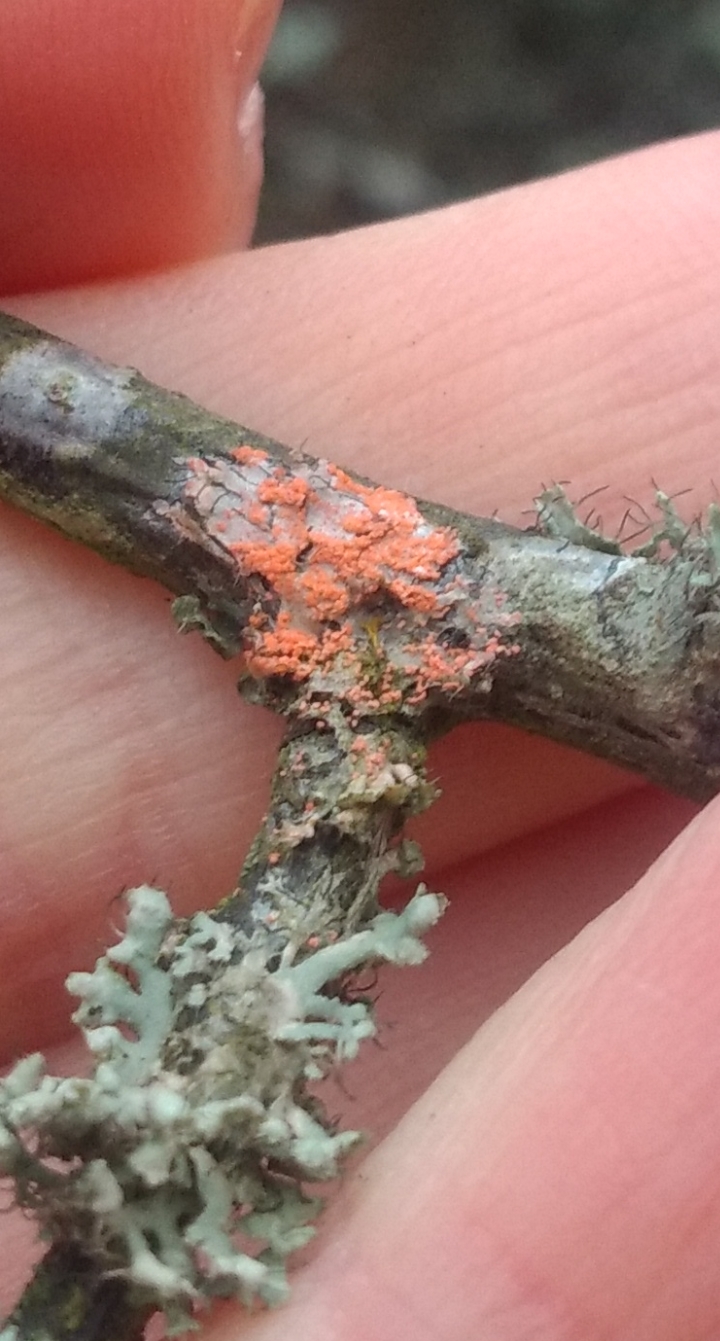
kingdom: Fungi
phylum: Basidiomycota
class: Agaricomycetes
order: Corticiales
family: Corticiaceae
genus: Erythricium
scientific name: Erythricium aurantiacum
